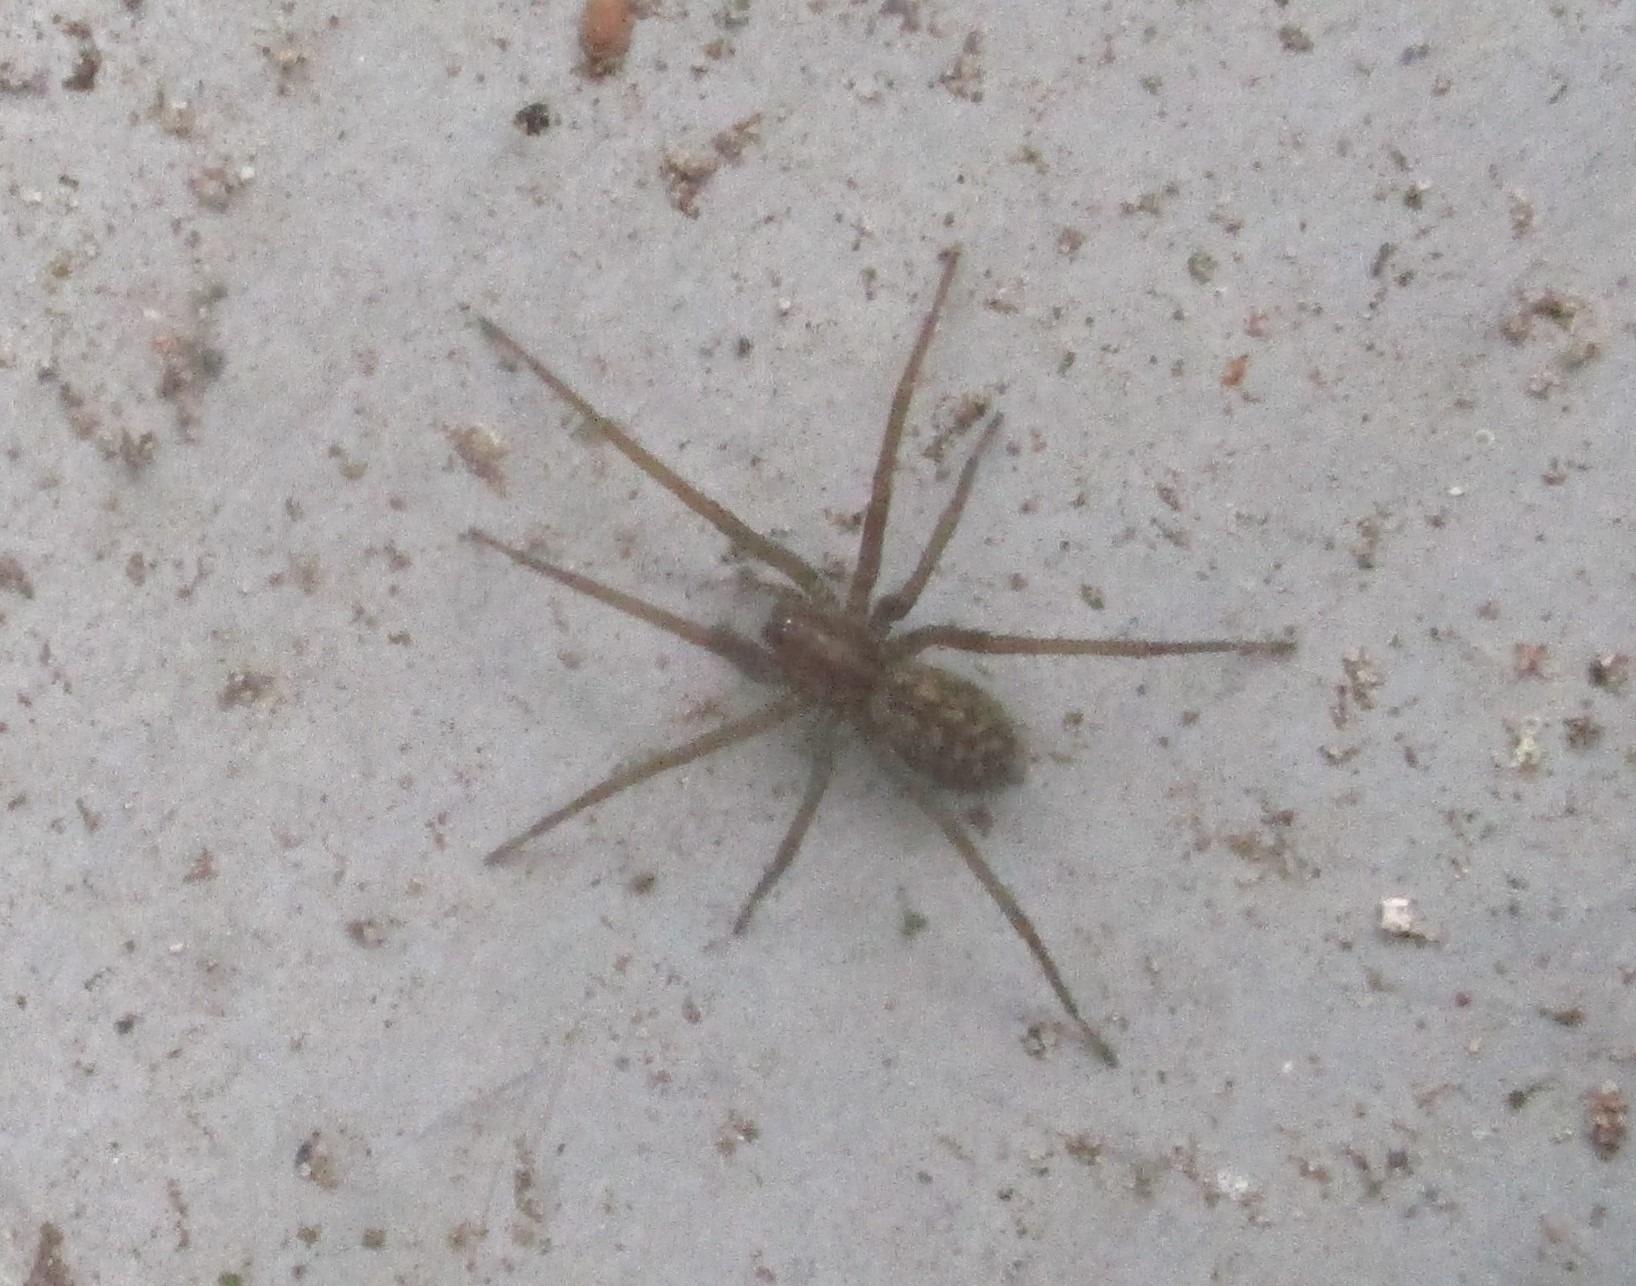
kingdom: Animalia
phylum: Arthropoda
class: Arachnida
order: Araneae
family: Agelenidae
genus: Eratigena
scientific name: Eratigena atrica
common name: Stor husedderkop
